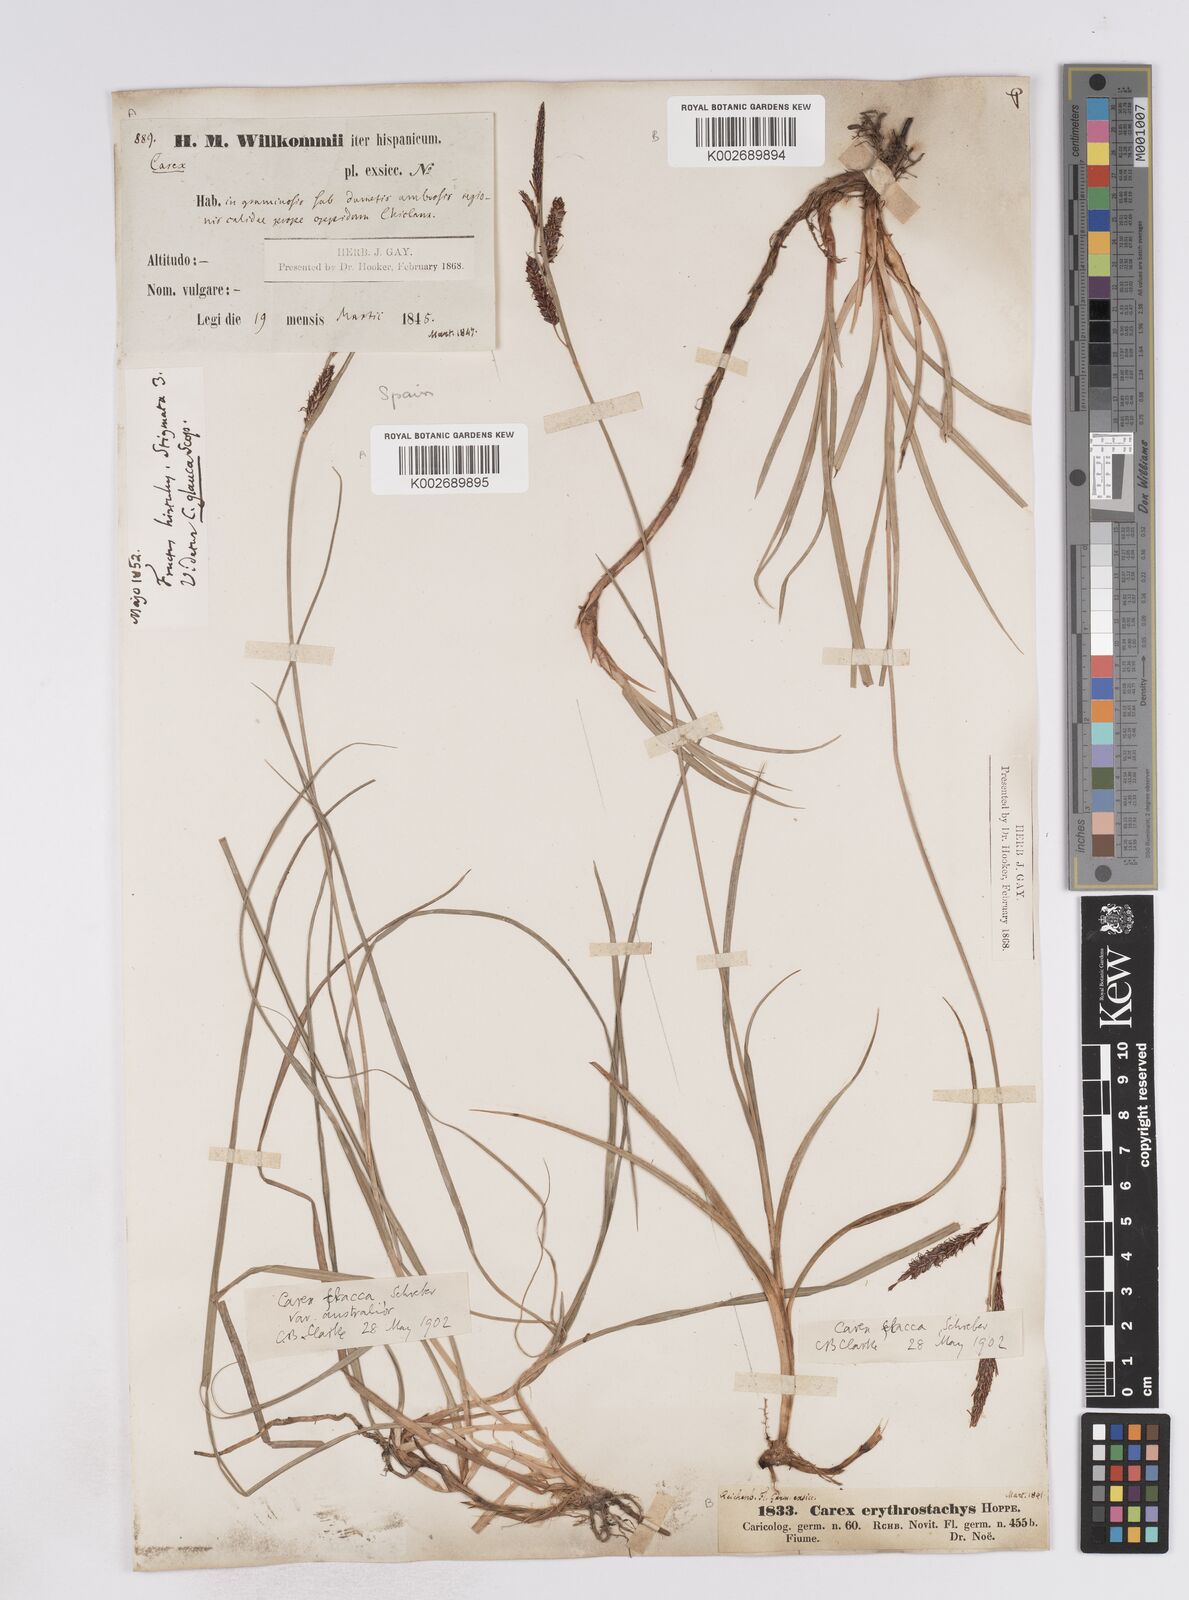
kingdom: Plantae
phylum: Tracheophyta
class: Liliopsida
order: Poales
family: Cyperaceae
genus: Carex
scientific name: Carex flacca
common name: Glaucous sedge
